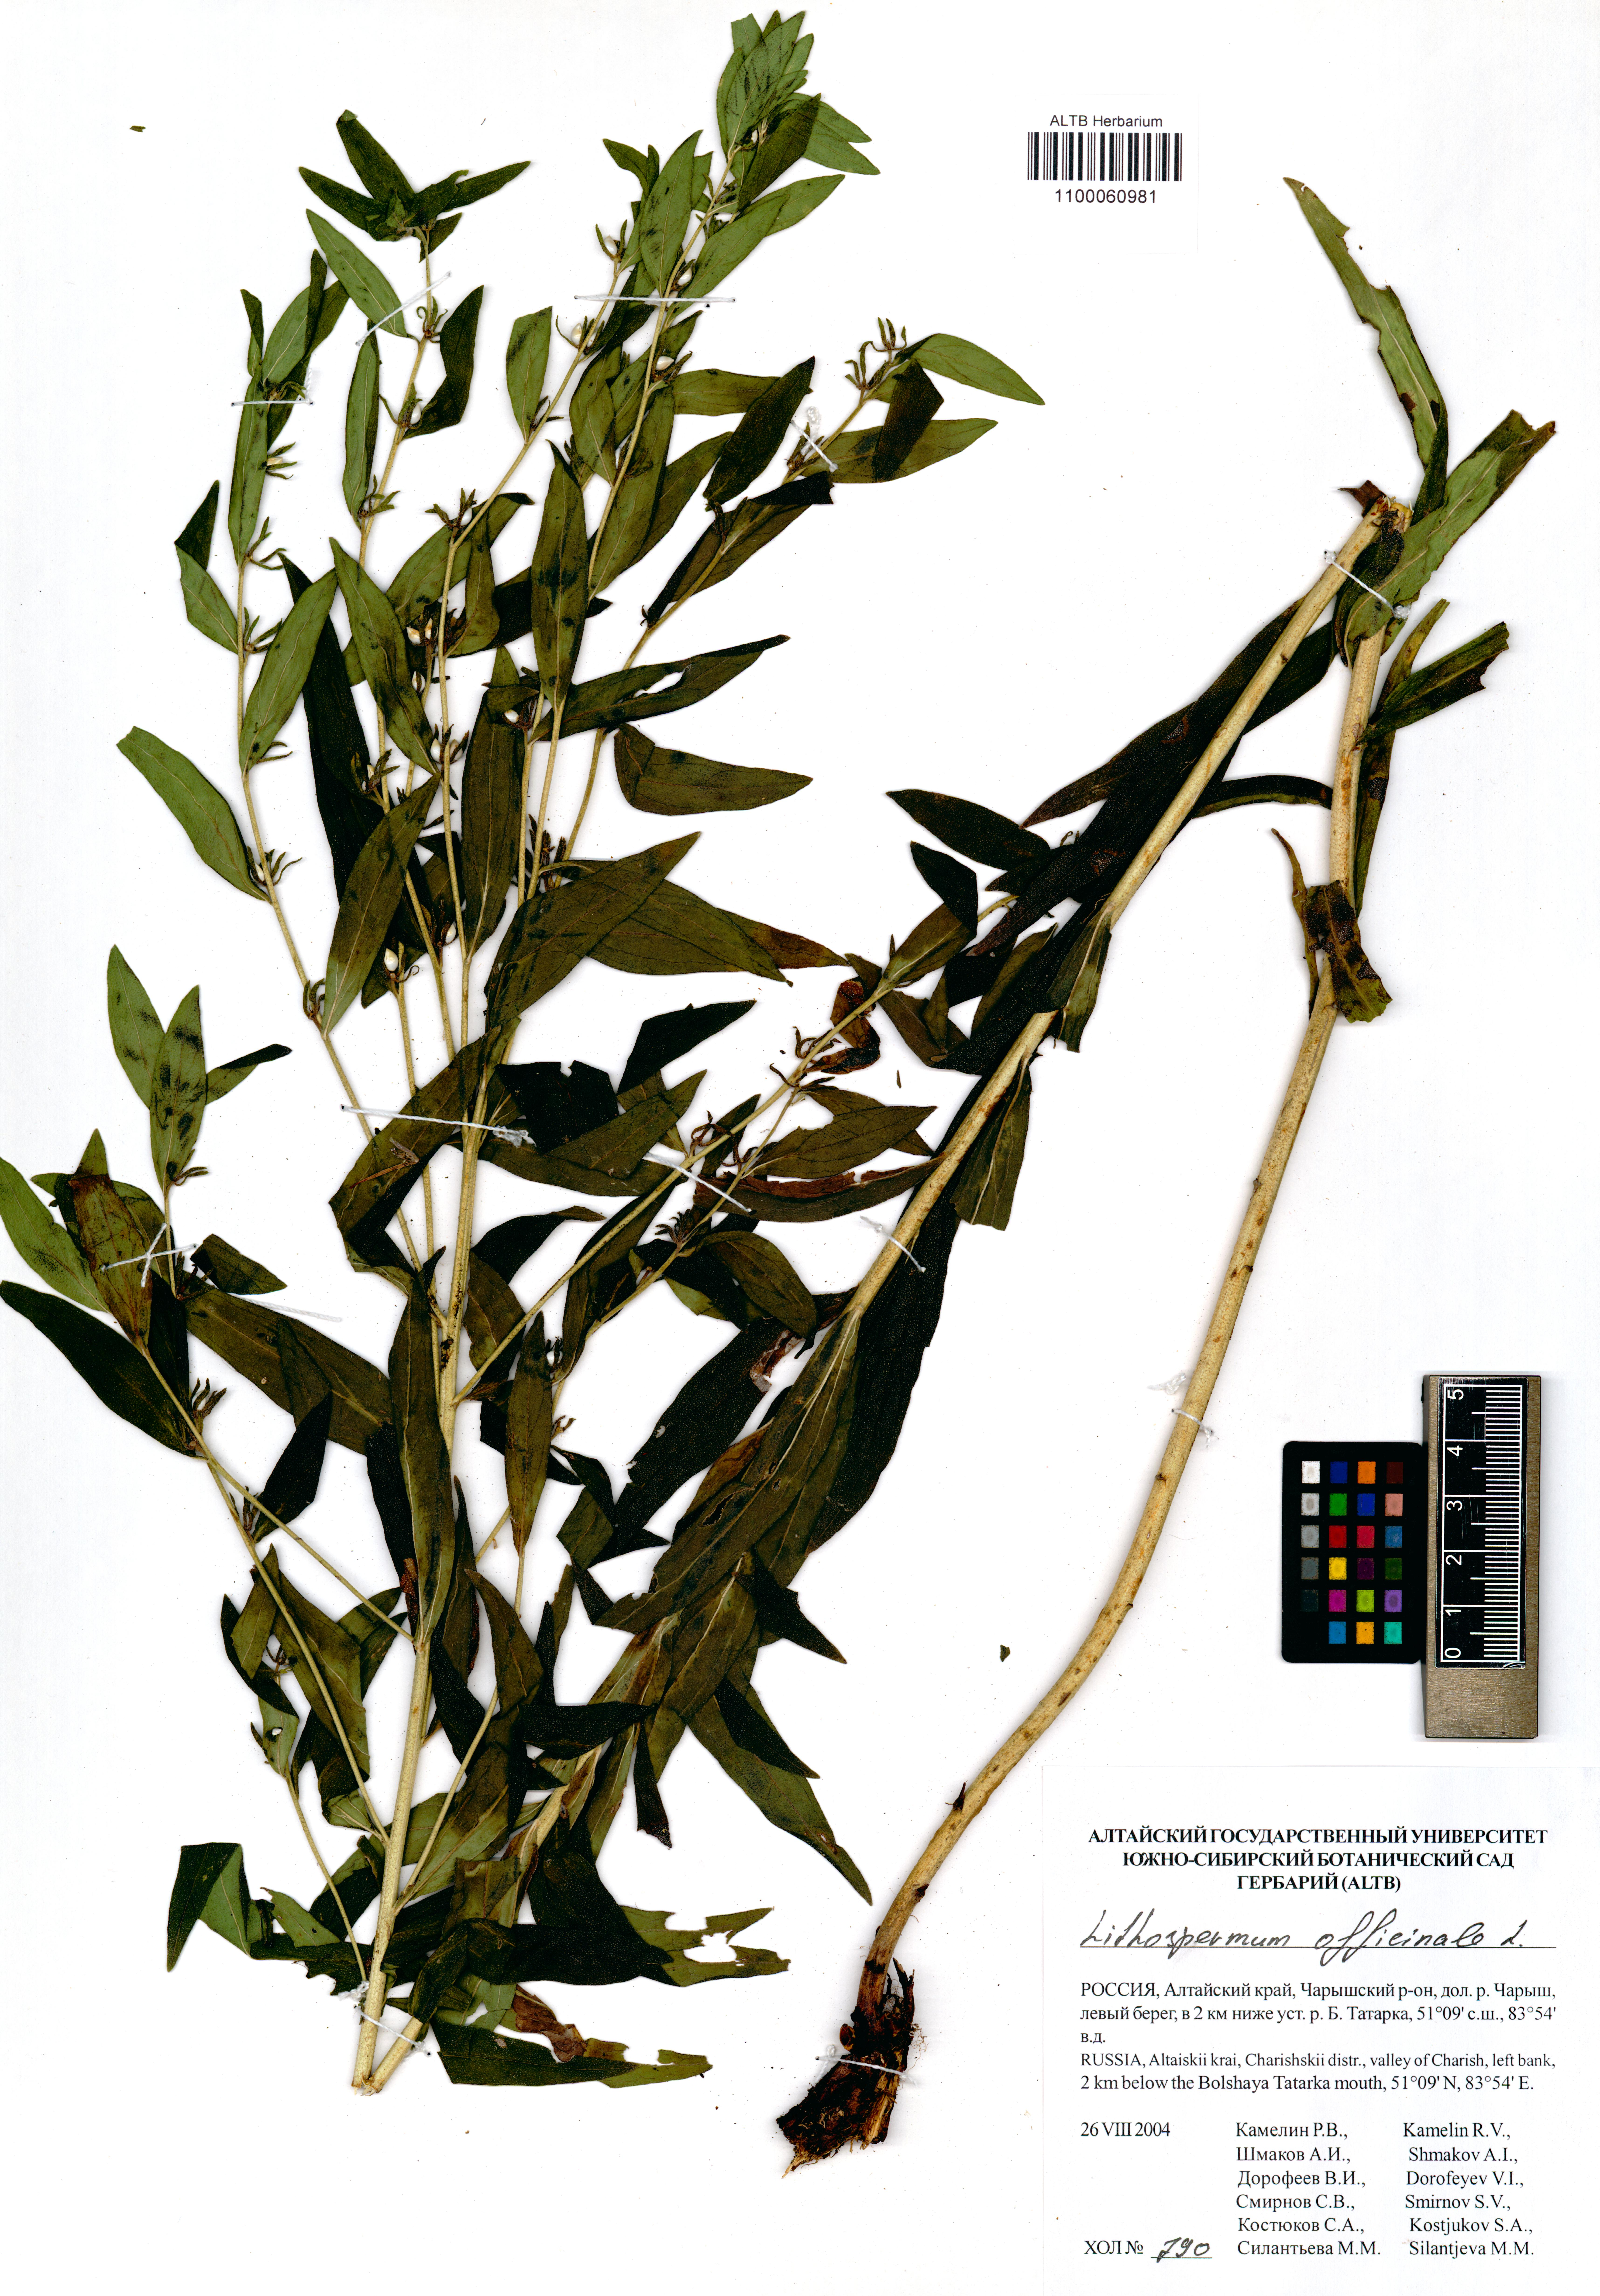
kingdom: Plantae
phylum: Tracheophyta
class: Magnoliopsida
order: Boraginales
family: Boraginaceae
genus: Lithospermum
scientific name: Lithospermum officinale
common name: Common gromwell
